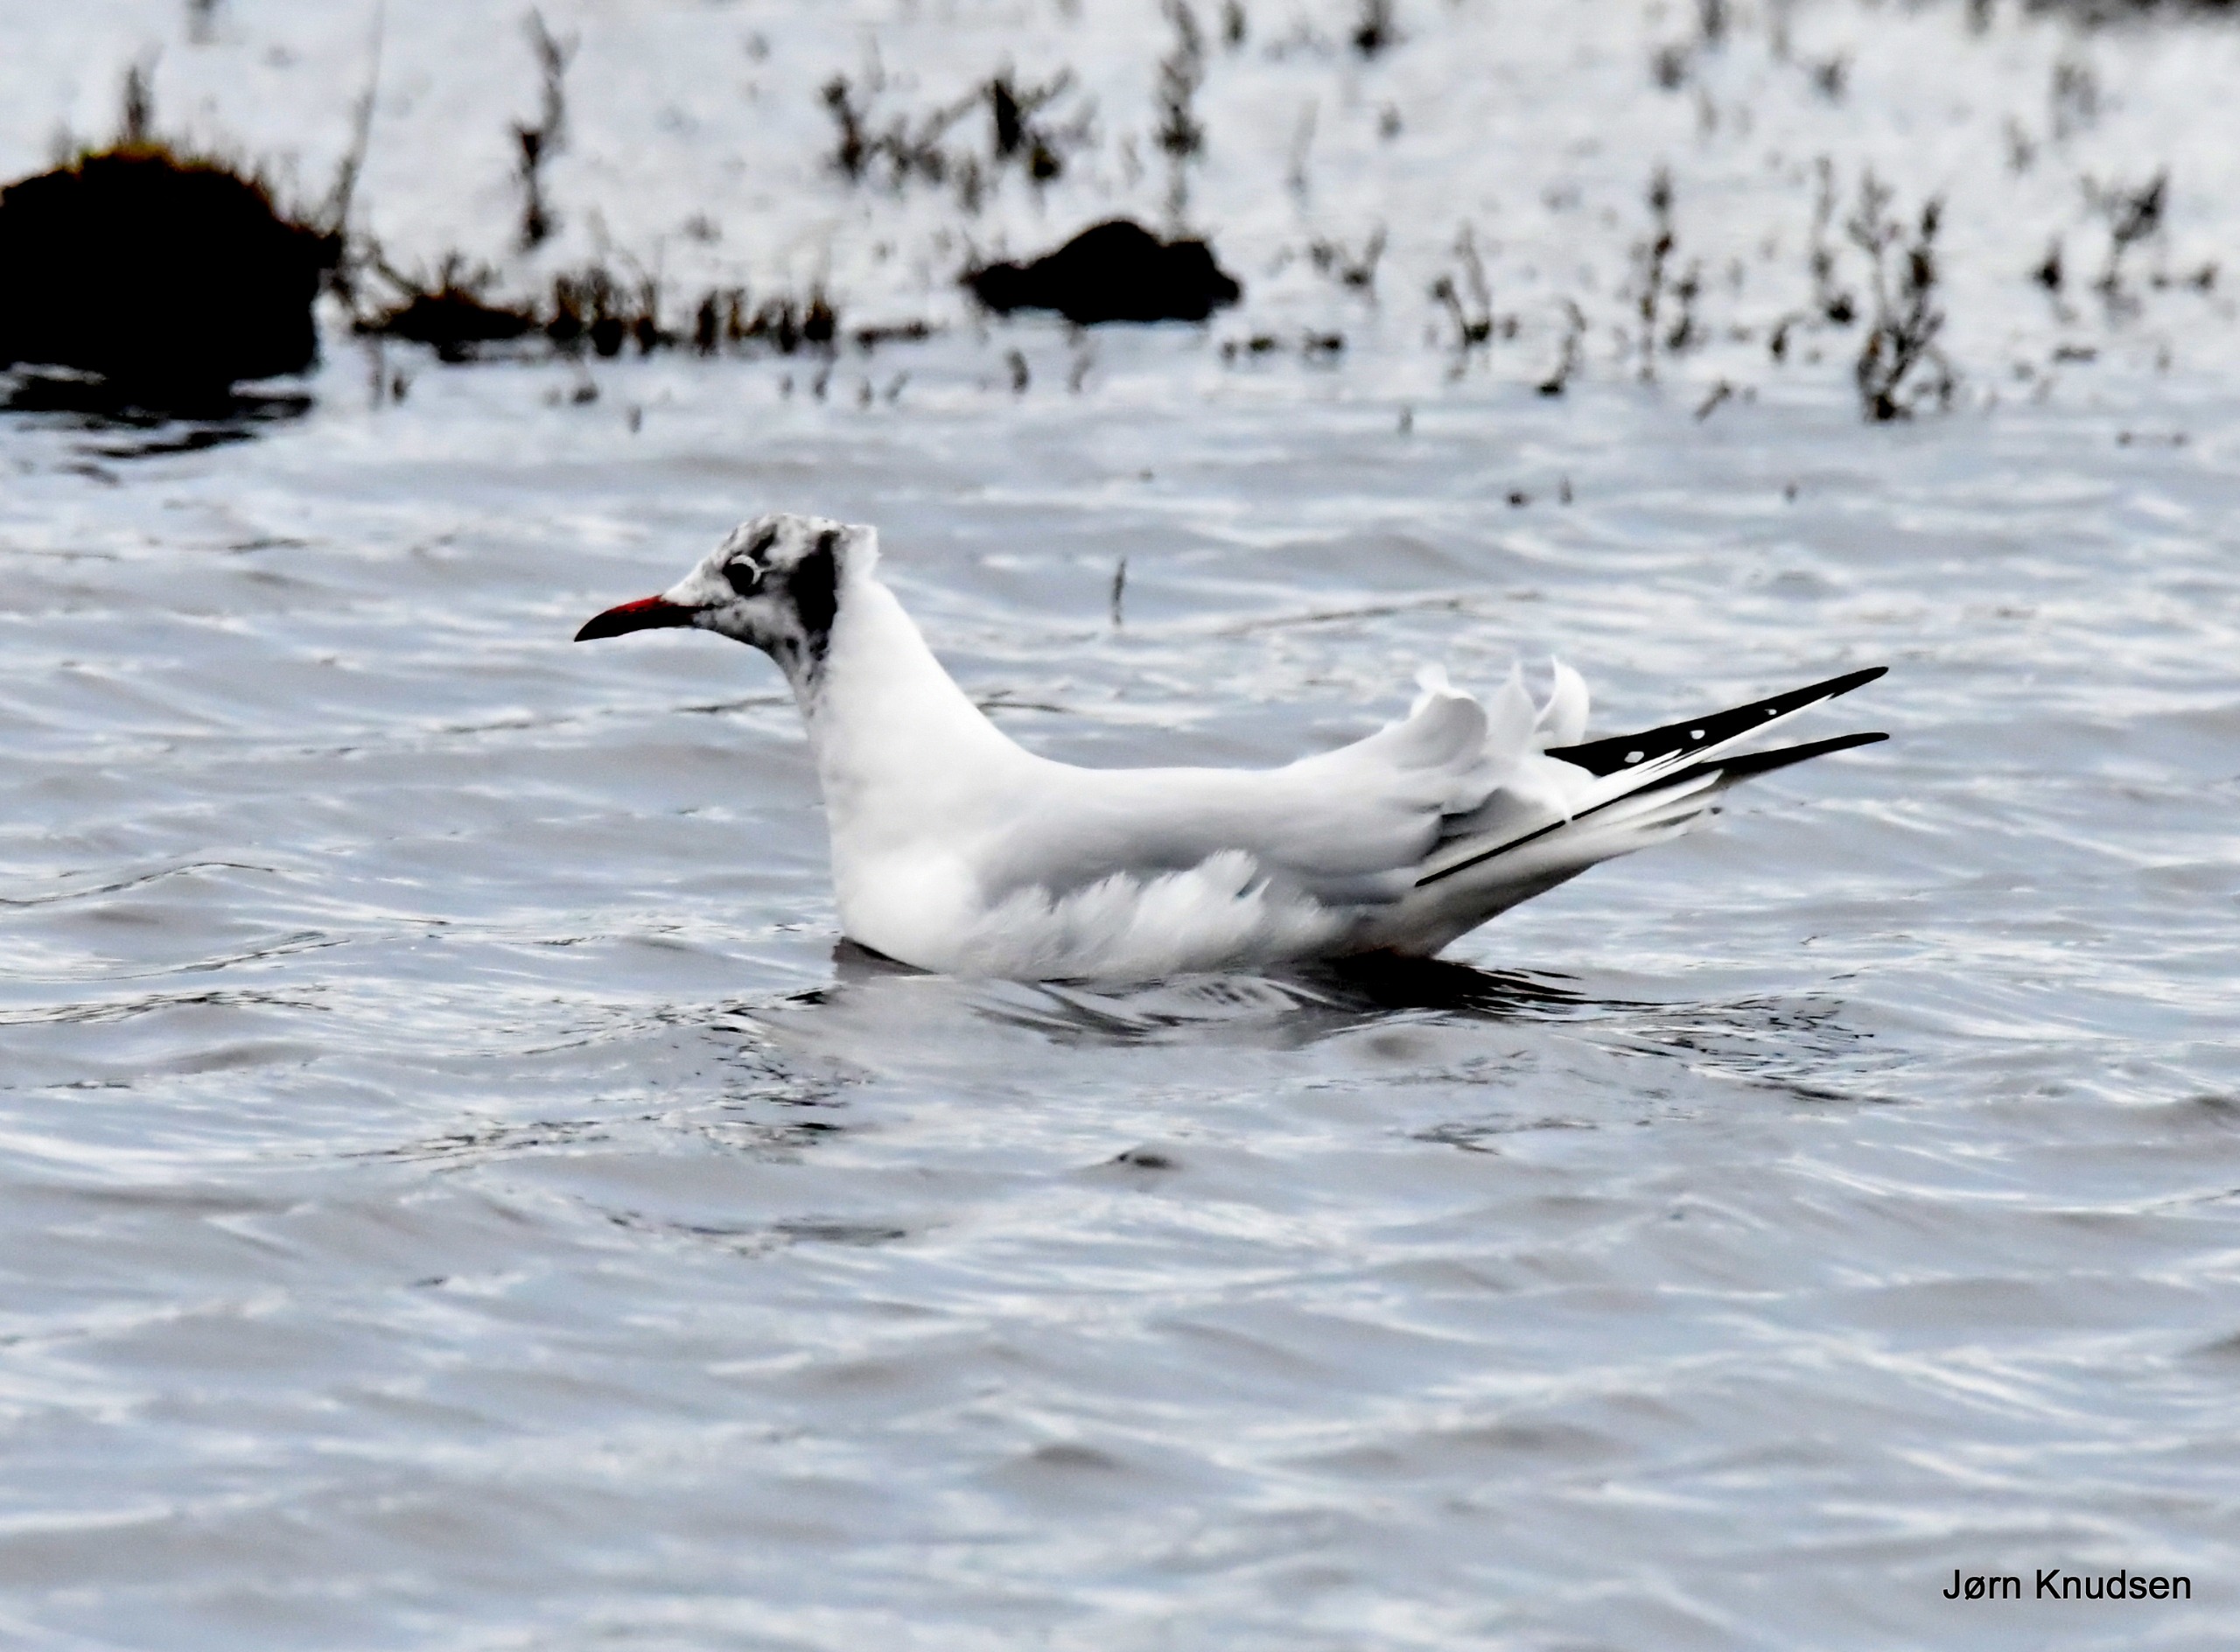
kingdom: Animalia
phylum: Chordata
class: Aves
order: Charadriiformes
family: Laridae
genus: Chroicocephalus
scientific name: Chroicocephalus ridibundus
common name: Hættemåge
